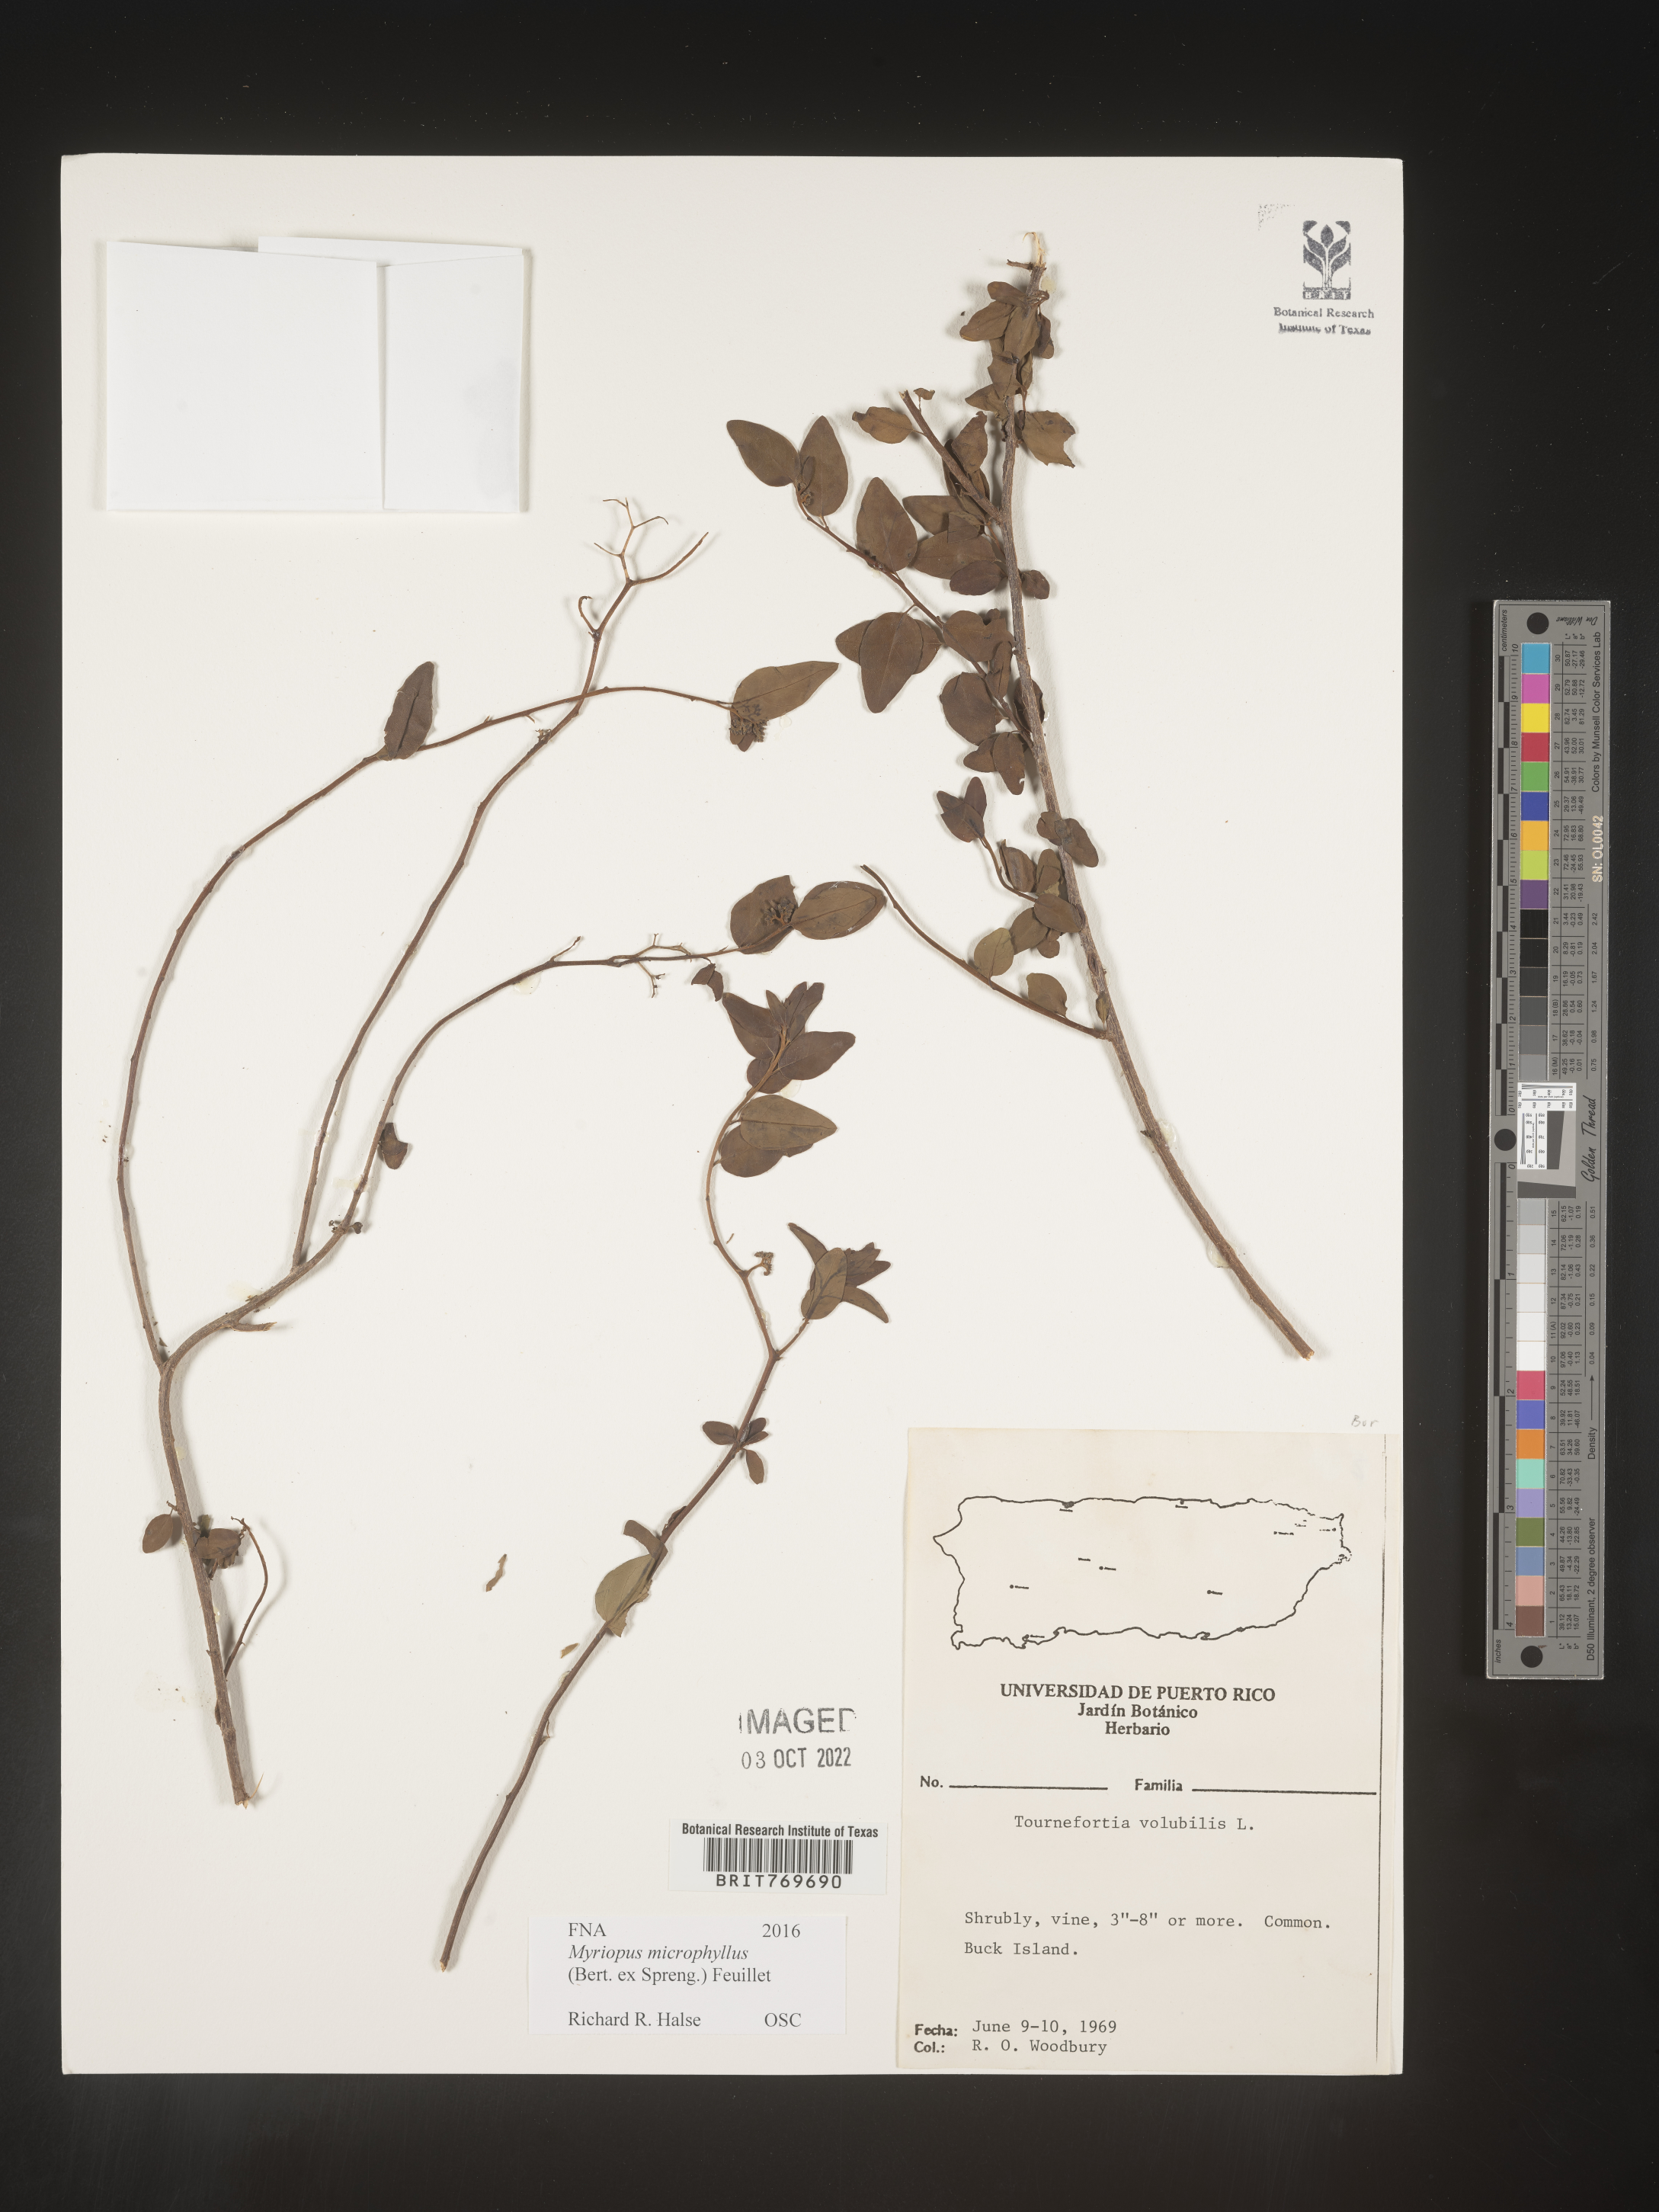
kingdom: Plantae
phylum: Tracheophyta
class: Magnoliopsida
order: Boraginales
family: Heliotropiaceae
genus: Myriopus
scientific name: Myriopus
